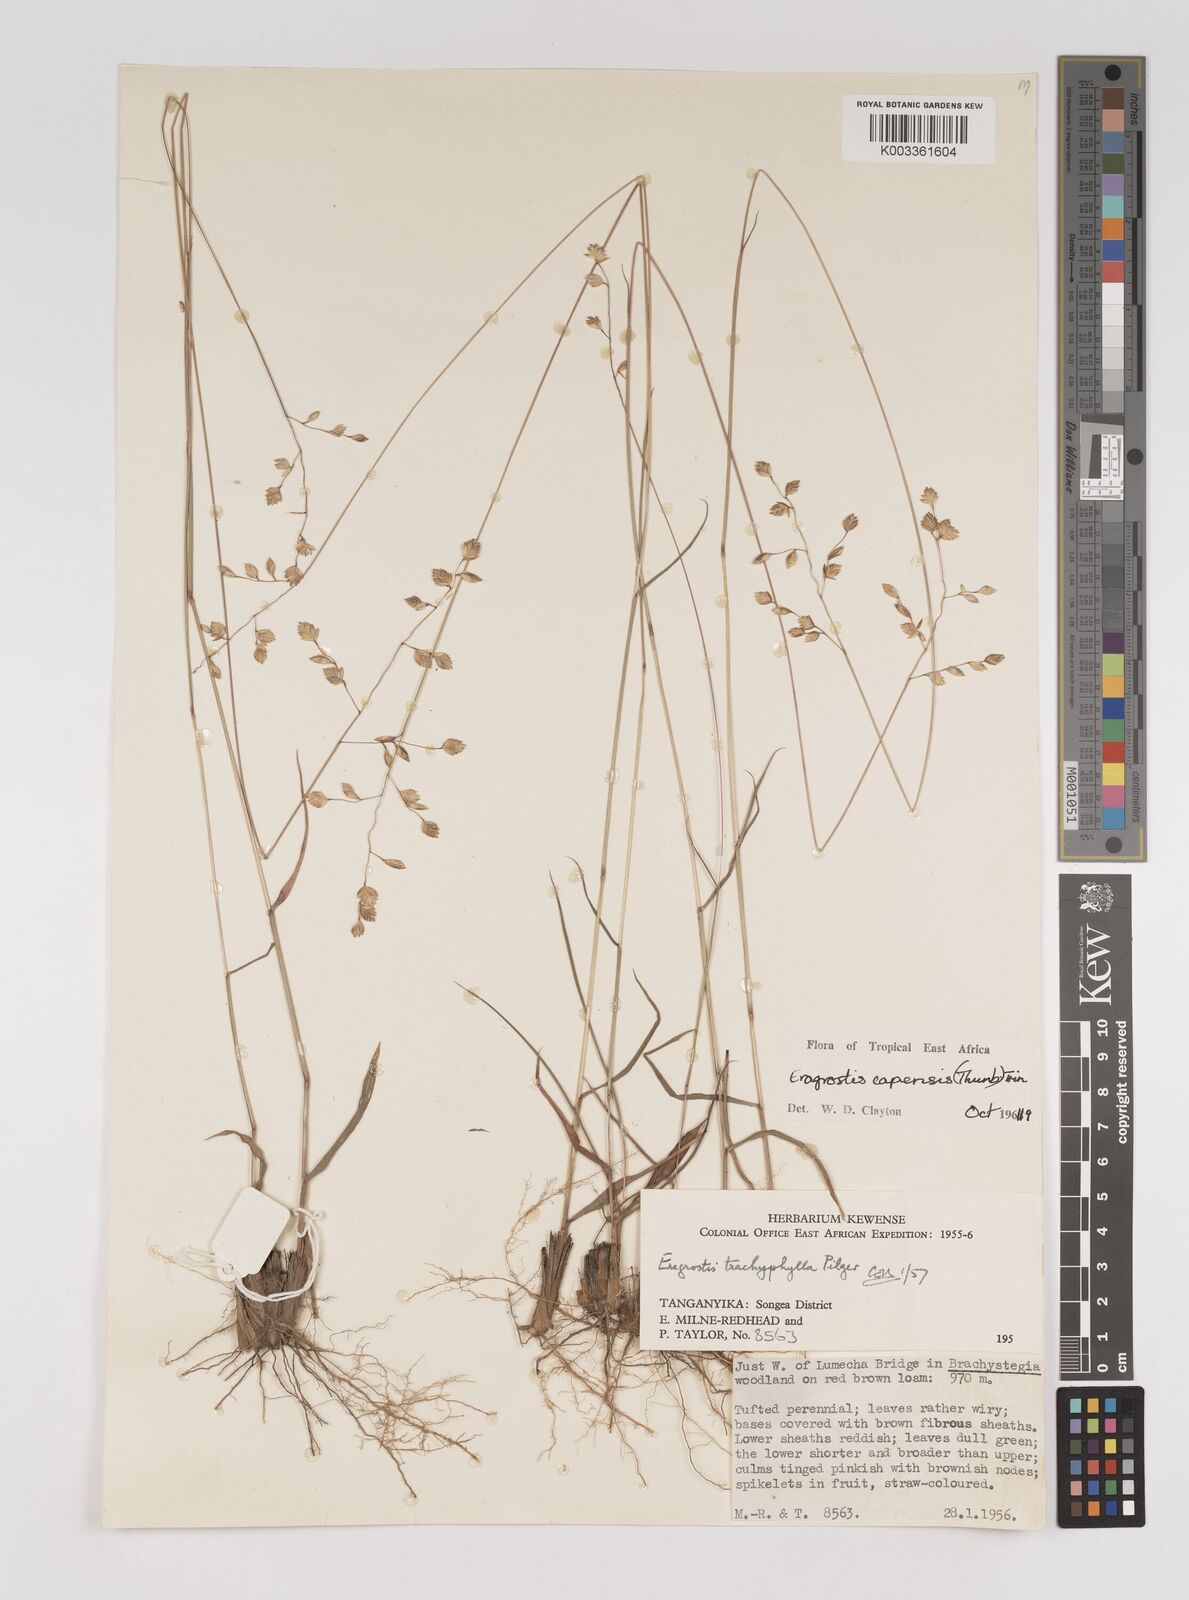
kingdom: Plantae
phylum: Tracheophyta
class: Liliopsida
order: Poales
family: Poaceae
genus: Eragrostis
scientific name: Eragrostis capensis
